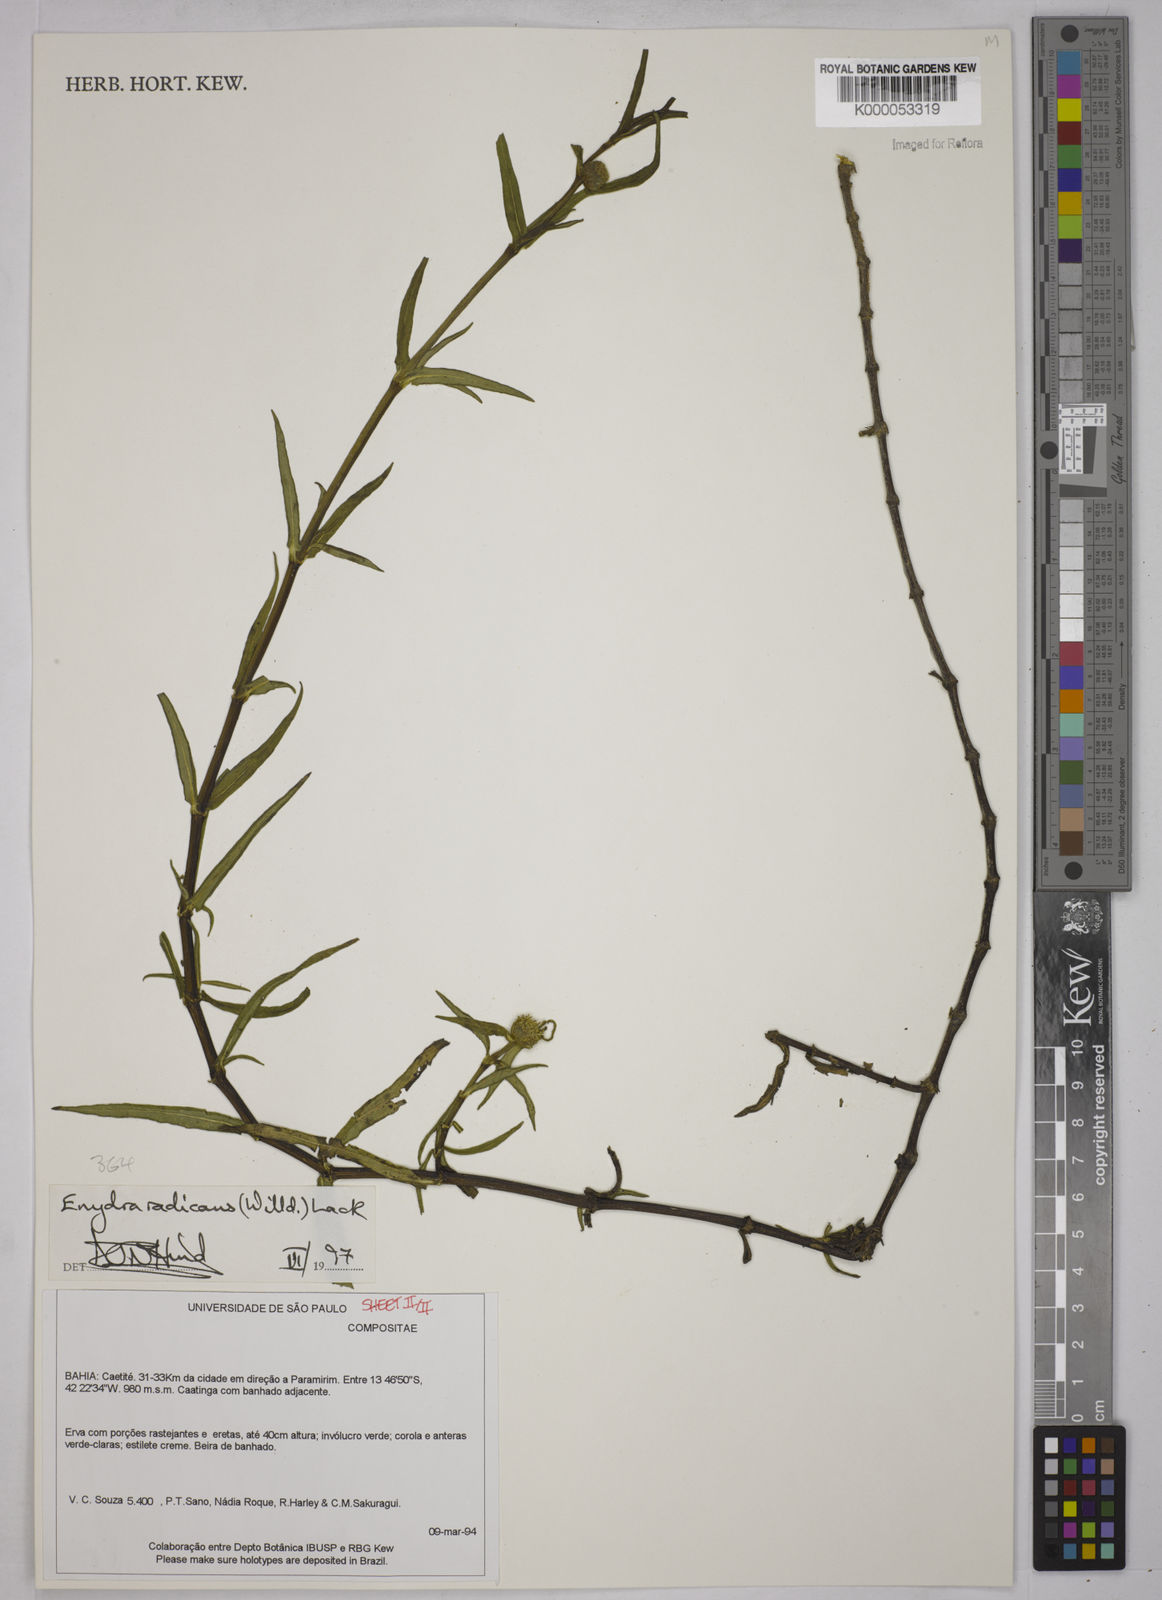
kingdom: Plantae
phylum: Tracheophyta
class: Magnoliopsida
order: Asterales
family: Asteraceae
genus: Enydra
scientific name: Enydra radicans
